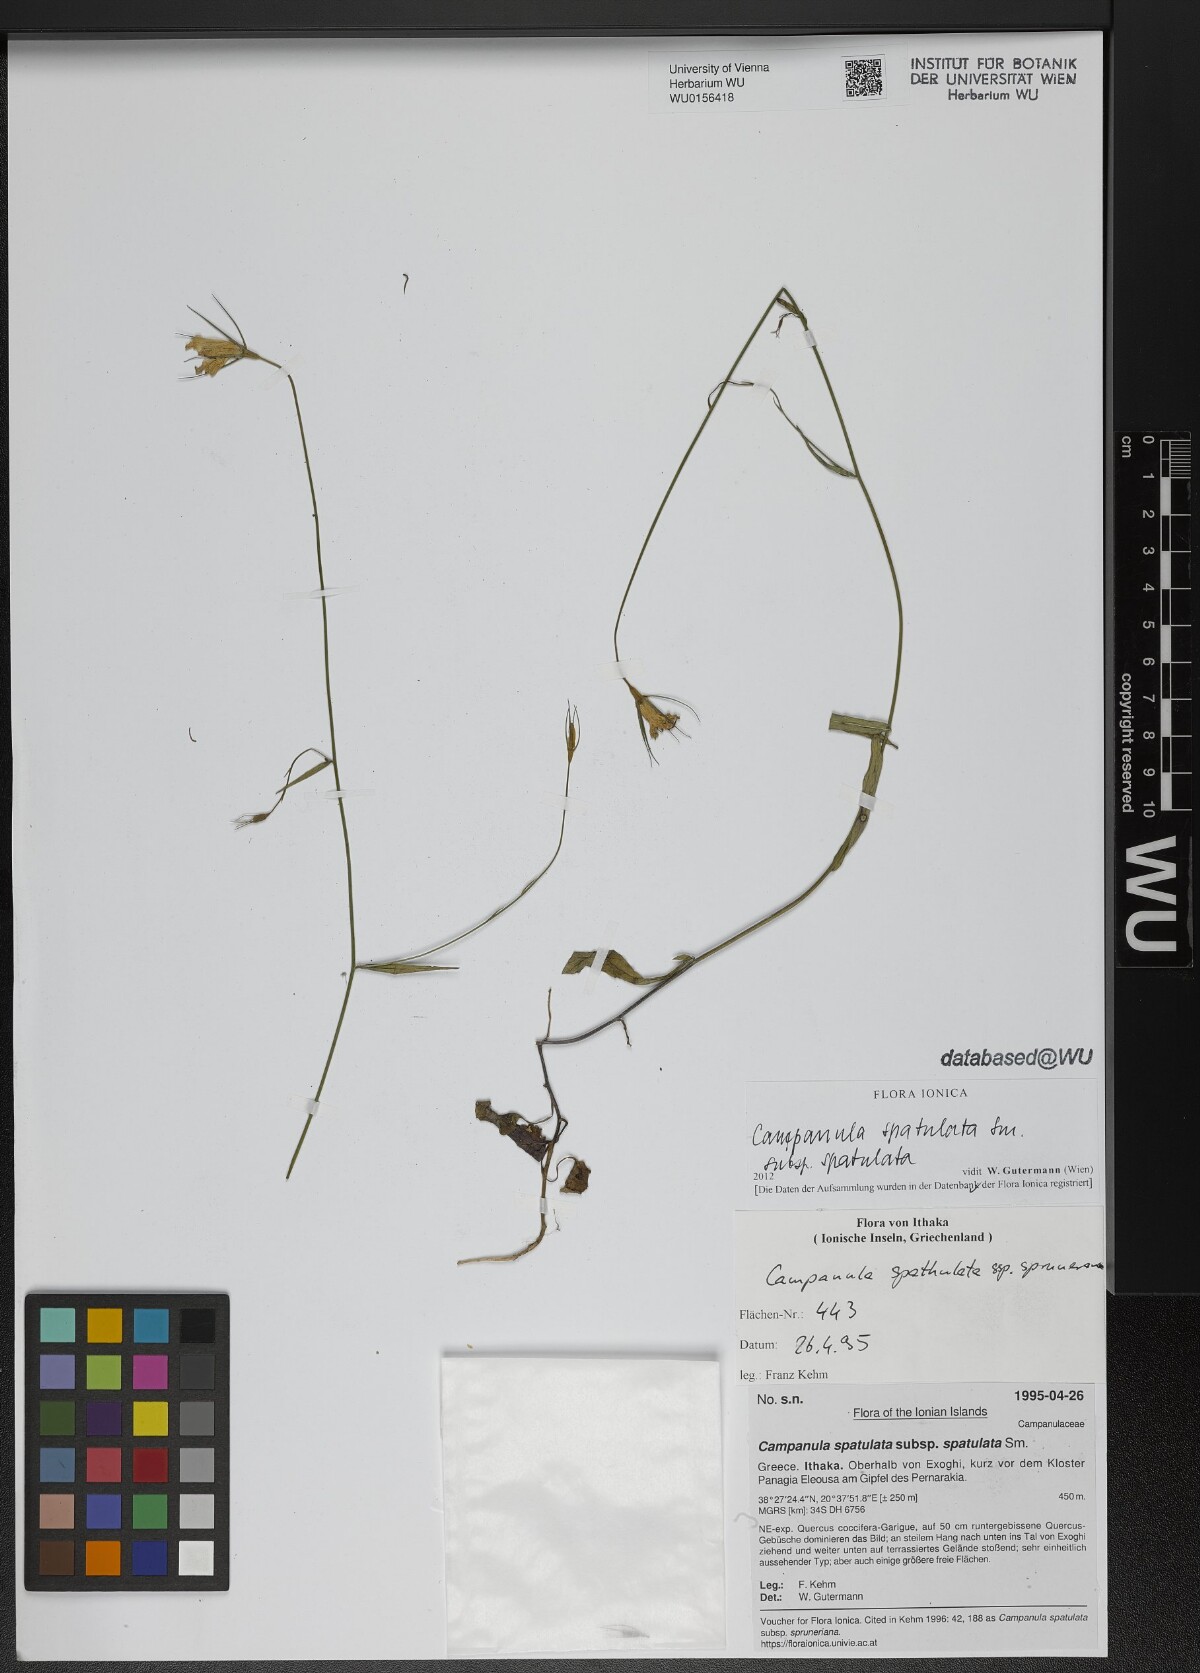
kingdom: Plantae
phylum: Tracheophyta
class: Magnoliopsida
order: Asterales
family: Campanulaceae
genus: Campanula
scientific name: Campanula spatulata
